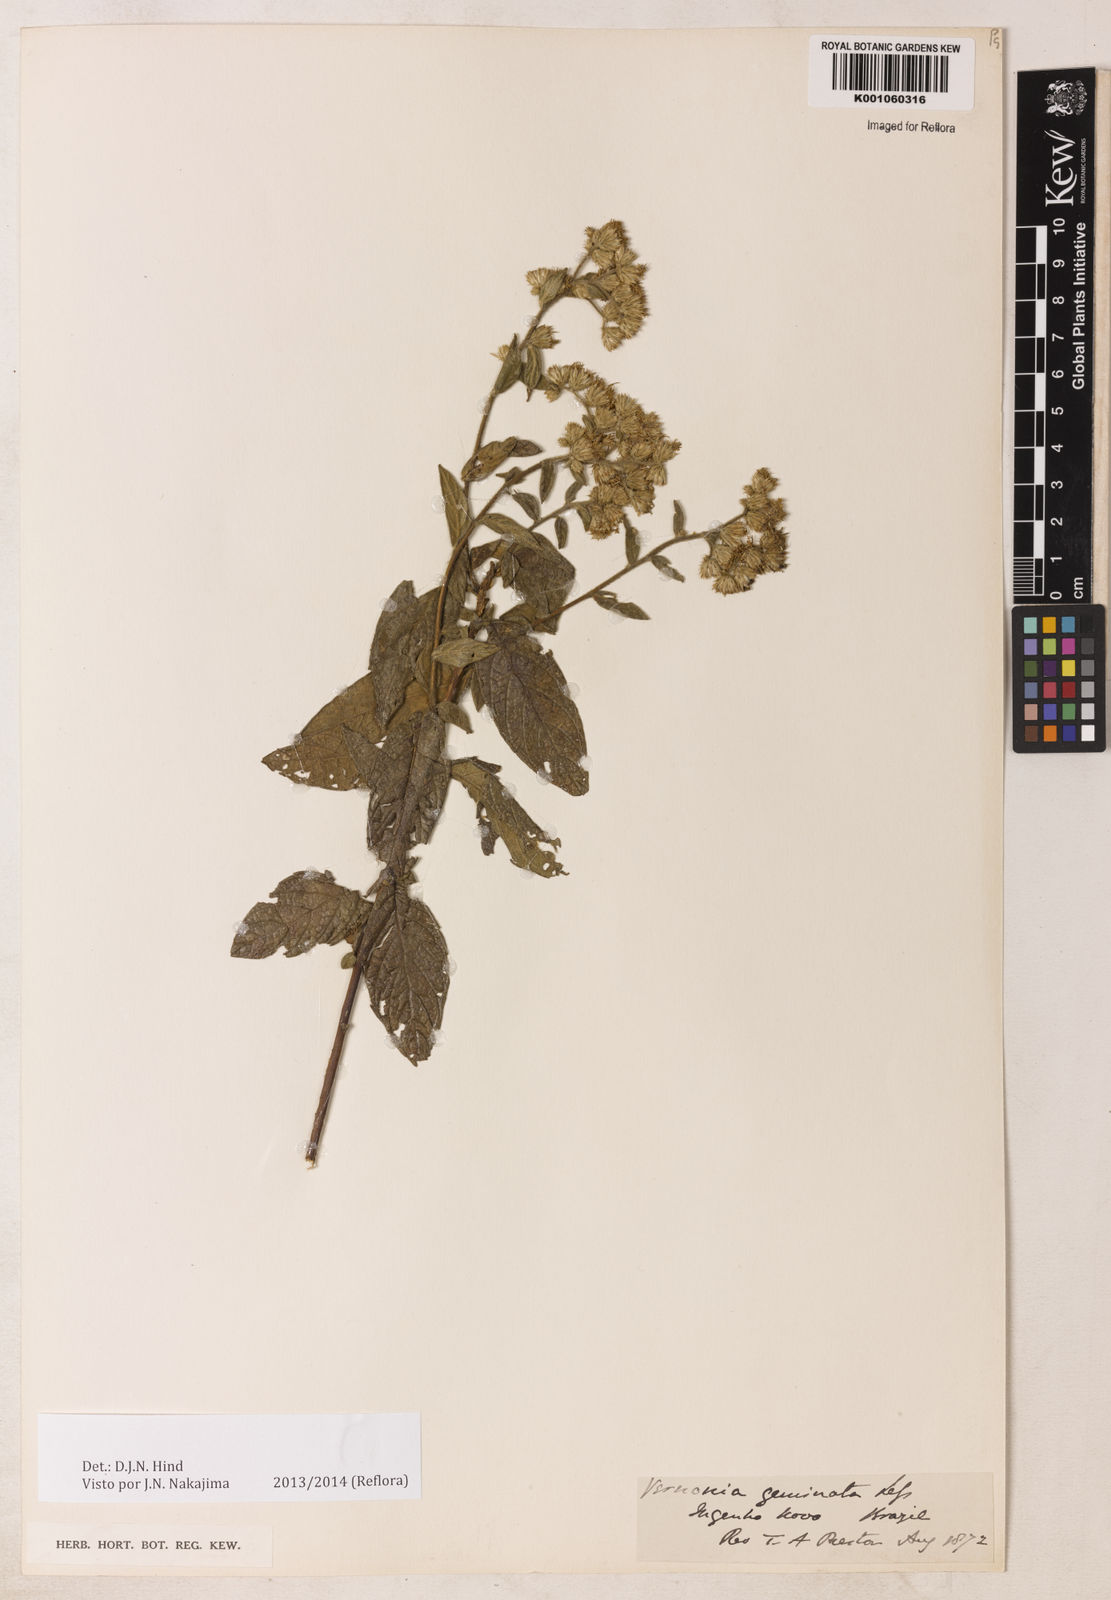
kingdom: Plantae
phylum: Tracheophyta
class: Magnoliopsida
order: Asterales
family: Asteraceae
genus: Lepidaploa
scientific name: Lepidaploa canescens
